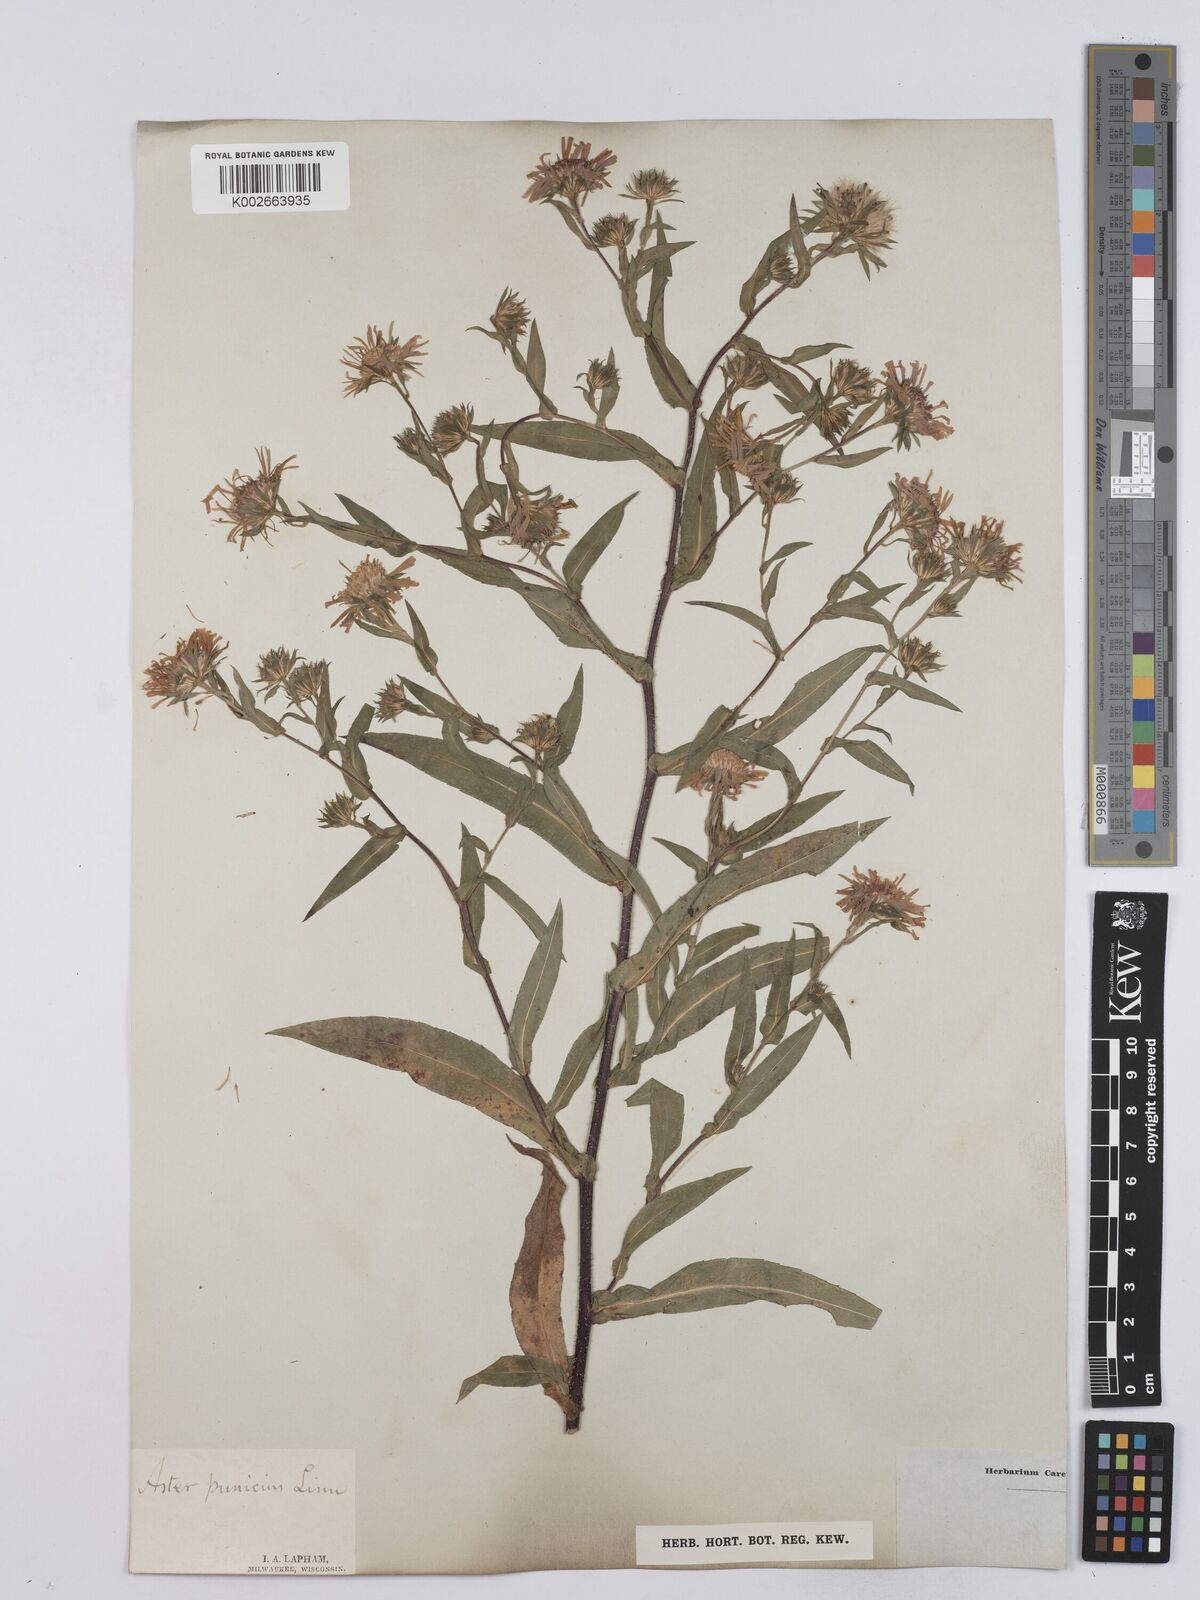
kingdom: Plantae
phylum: Tracheophyta
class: Magnoliopsida
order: Asterales
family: Asteraceae
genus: Symphyotrichum
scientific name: Symphyotrichum puniceum
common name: Bog aster
